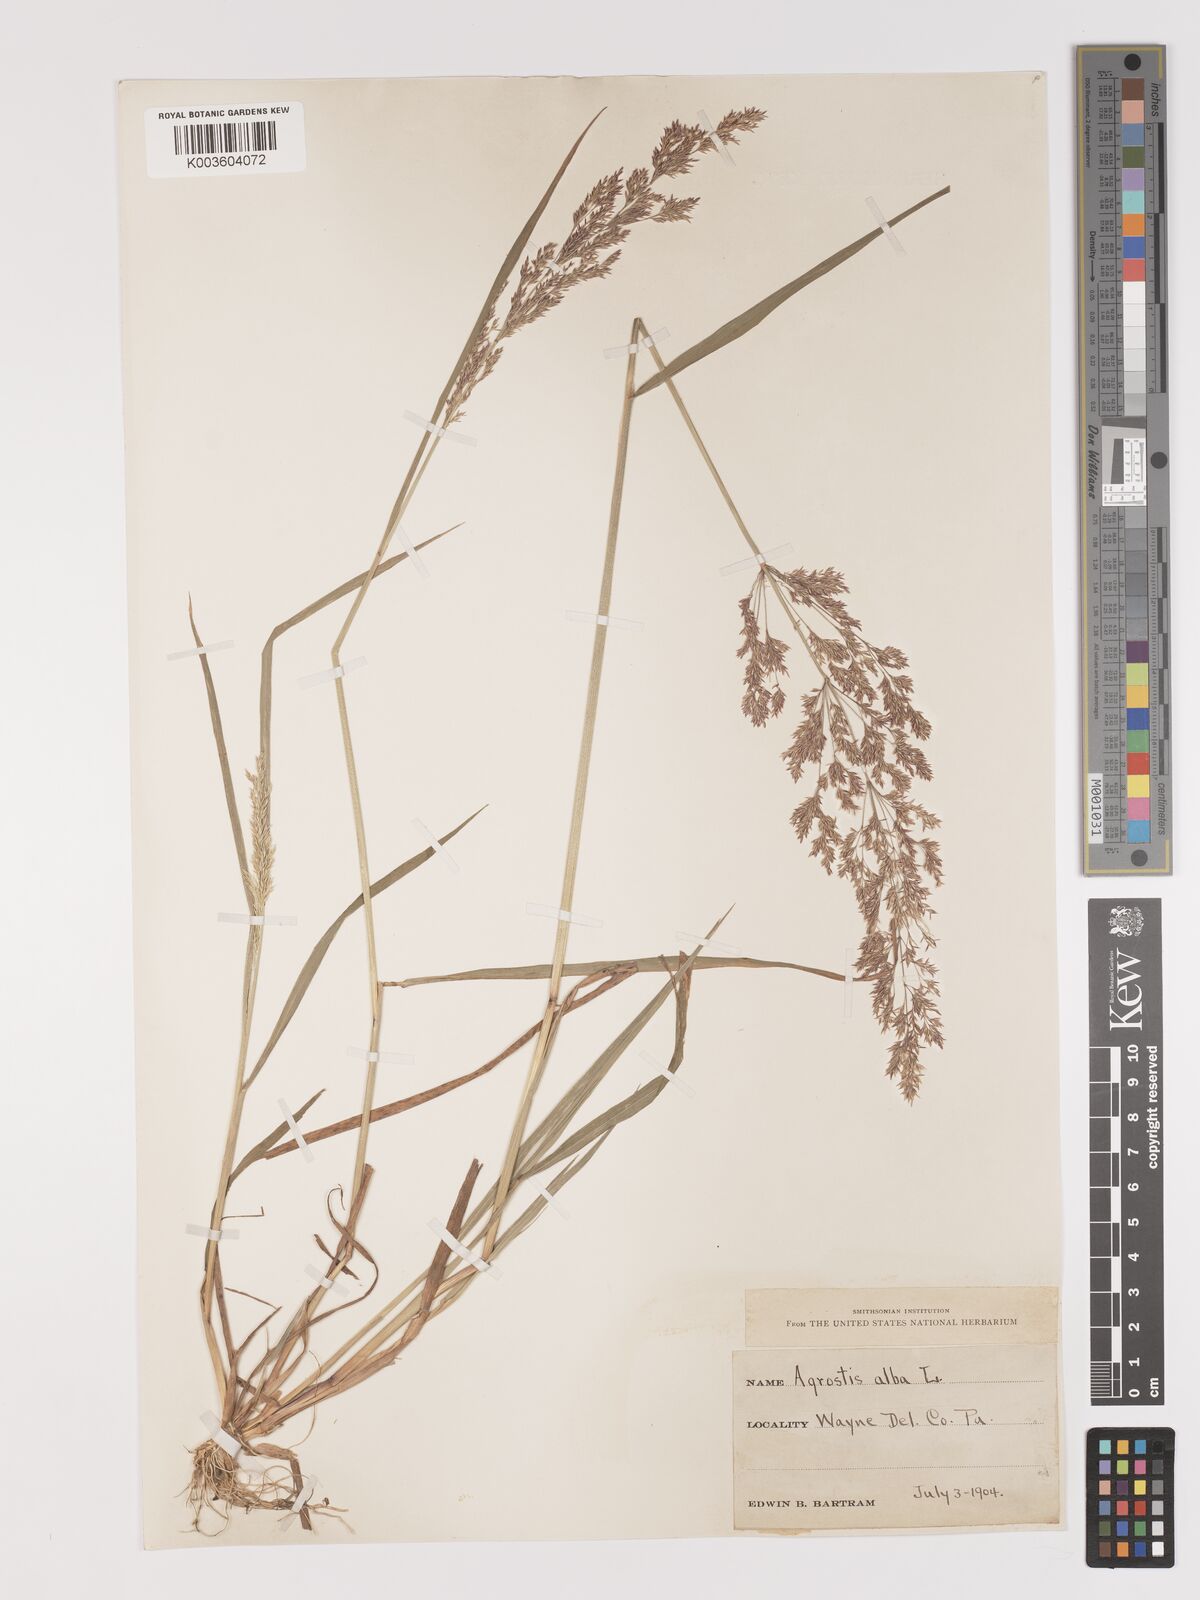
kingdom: Plantae
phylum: Tracheophyta
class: Liliopsida
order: Poales
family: Poaceae
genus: Agrostis
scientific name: Agrostis gigantea
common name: Black bent
